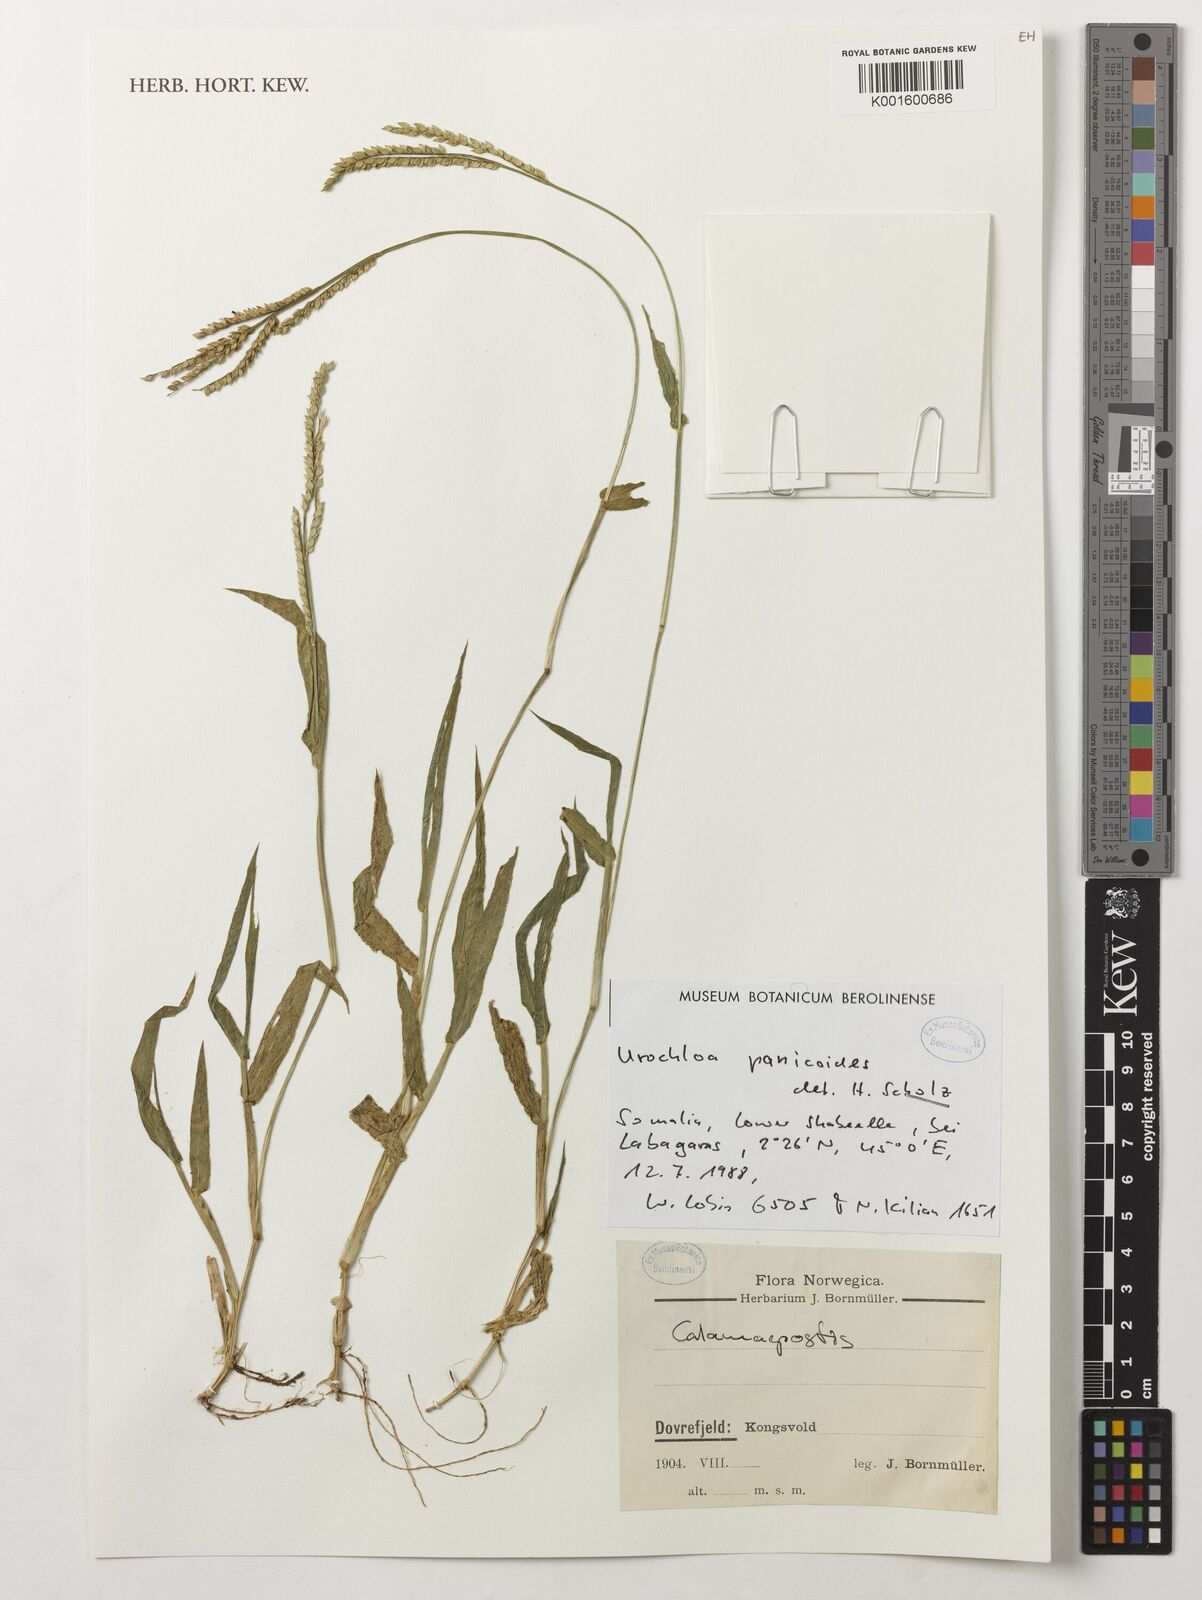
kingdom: Plantae
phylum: Tracheophyta
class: Liliopsida
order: Poales
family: Poaceae
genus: Urochloa
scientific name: Urochloa panicoides
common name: Sharp-flowered signal-grass
